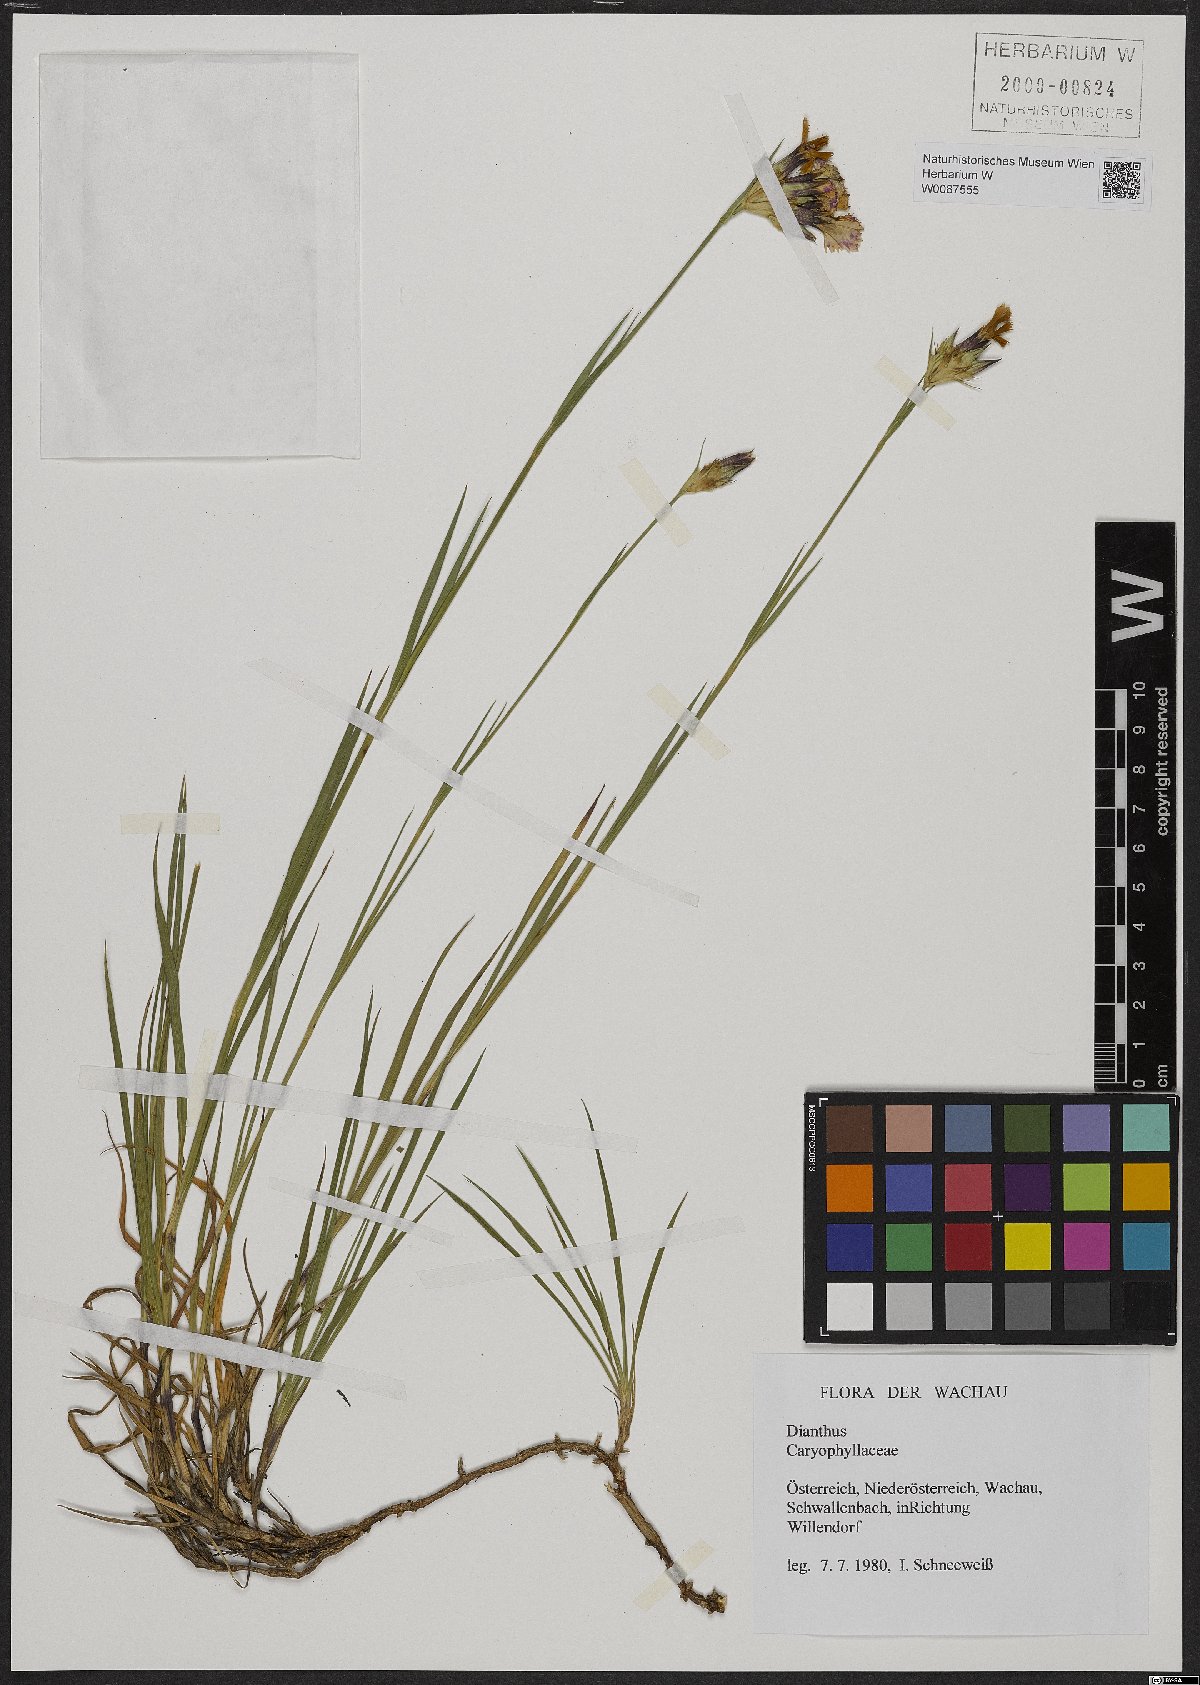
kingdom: Plantae
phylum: Tracheophyta
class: Magnoliopsida
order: Caryophyllales
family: Caryophyllaceae
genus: Dianthus
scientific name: Dianthus carthusianorum
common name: Carthusian pink
